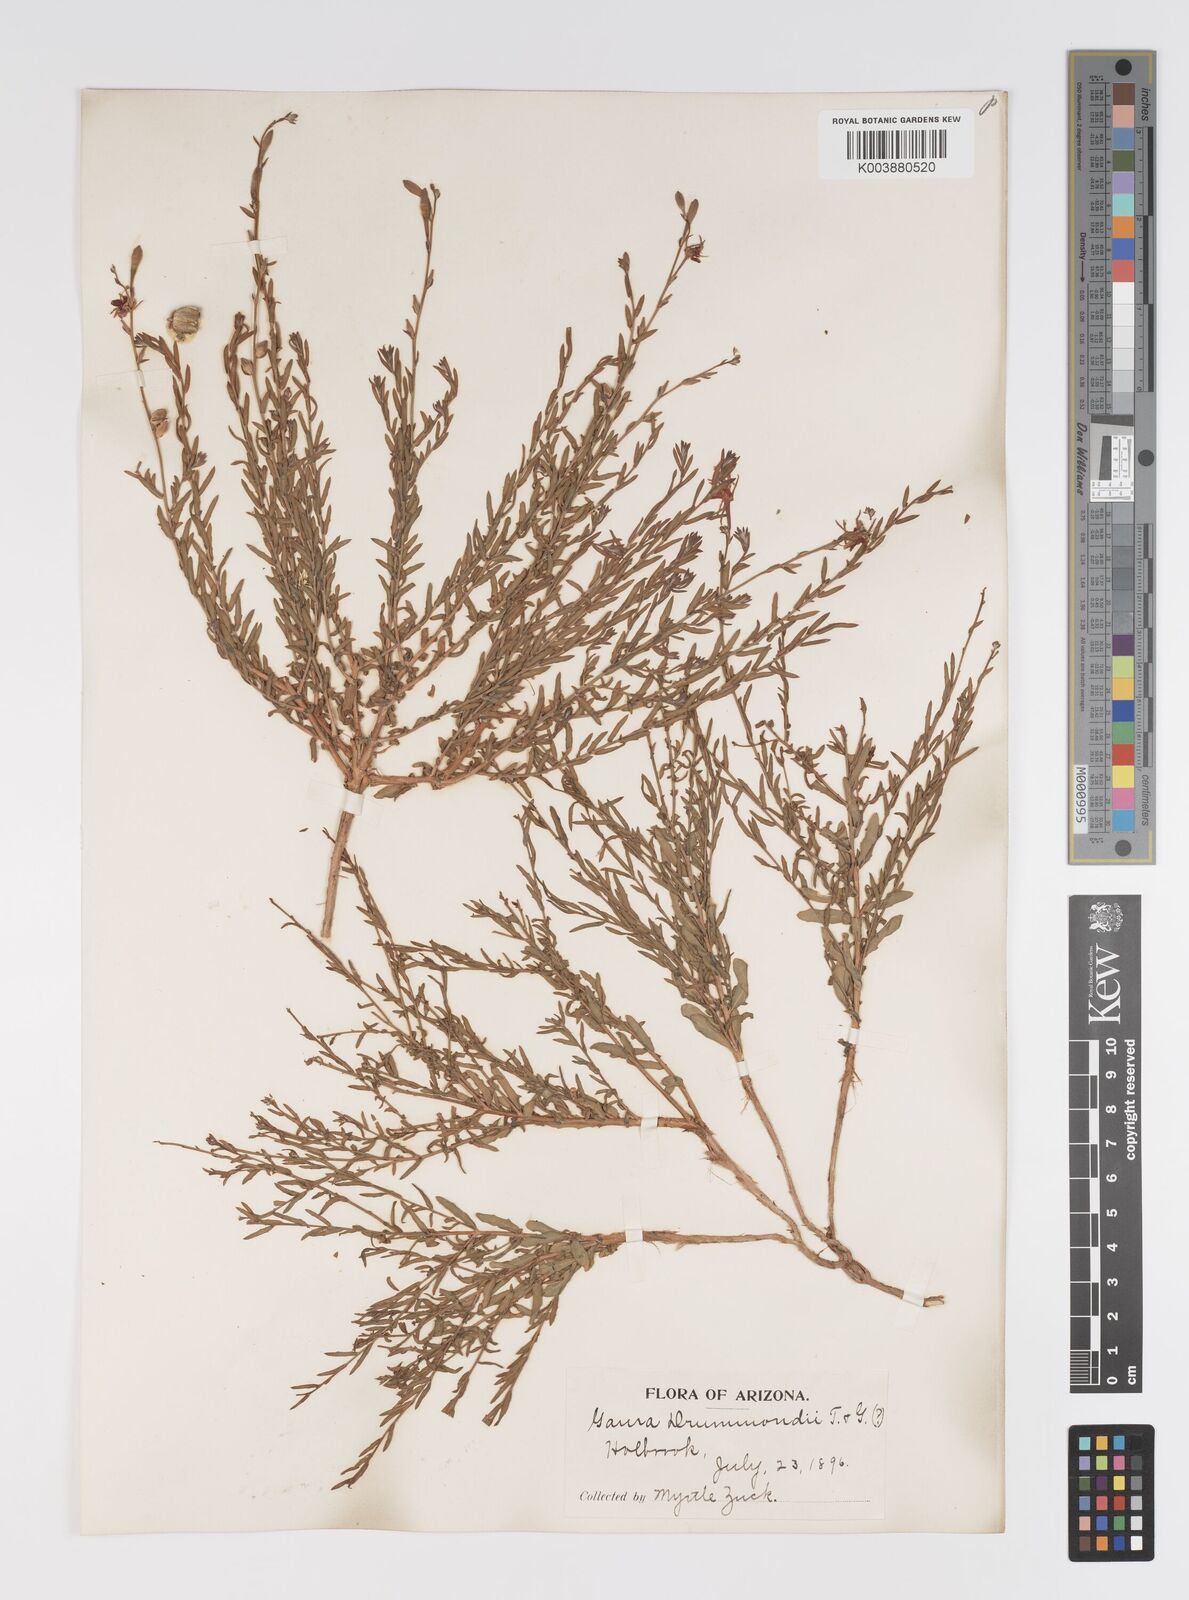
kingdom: Plantae
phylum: Tracheophyta
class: Magnoliopsida
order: Myrtales
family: Onagraceae
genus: Oenothera
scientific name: Oenothera hispida
